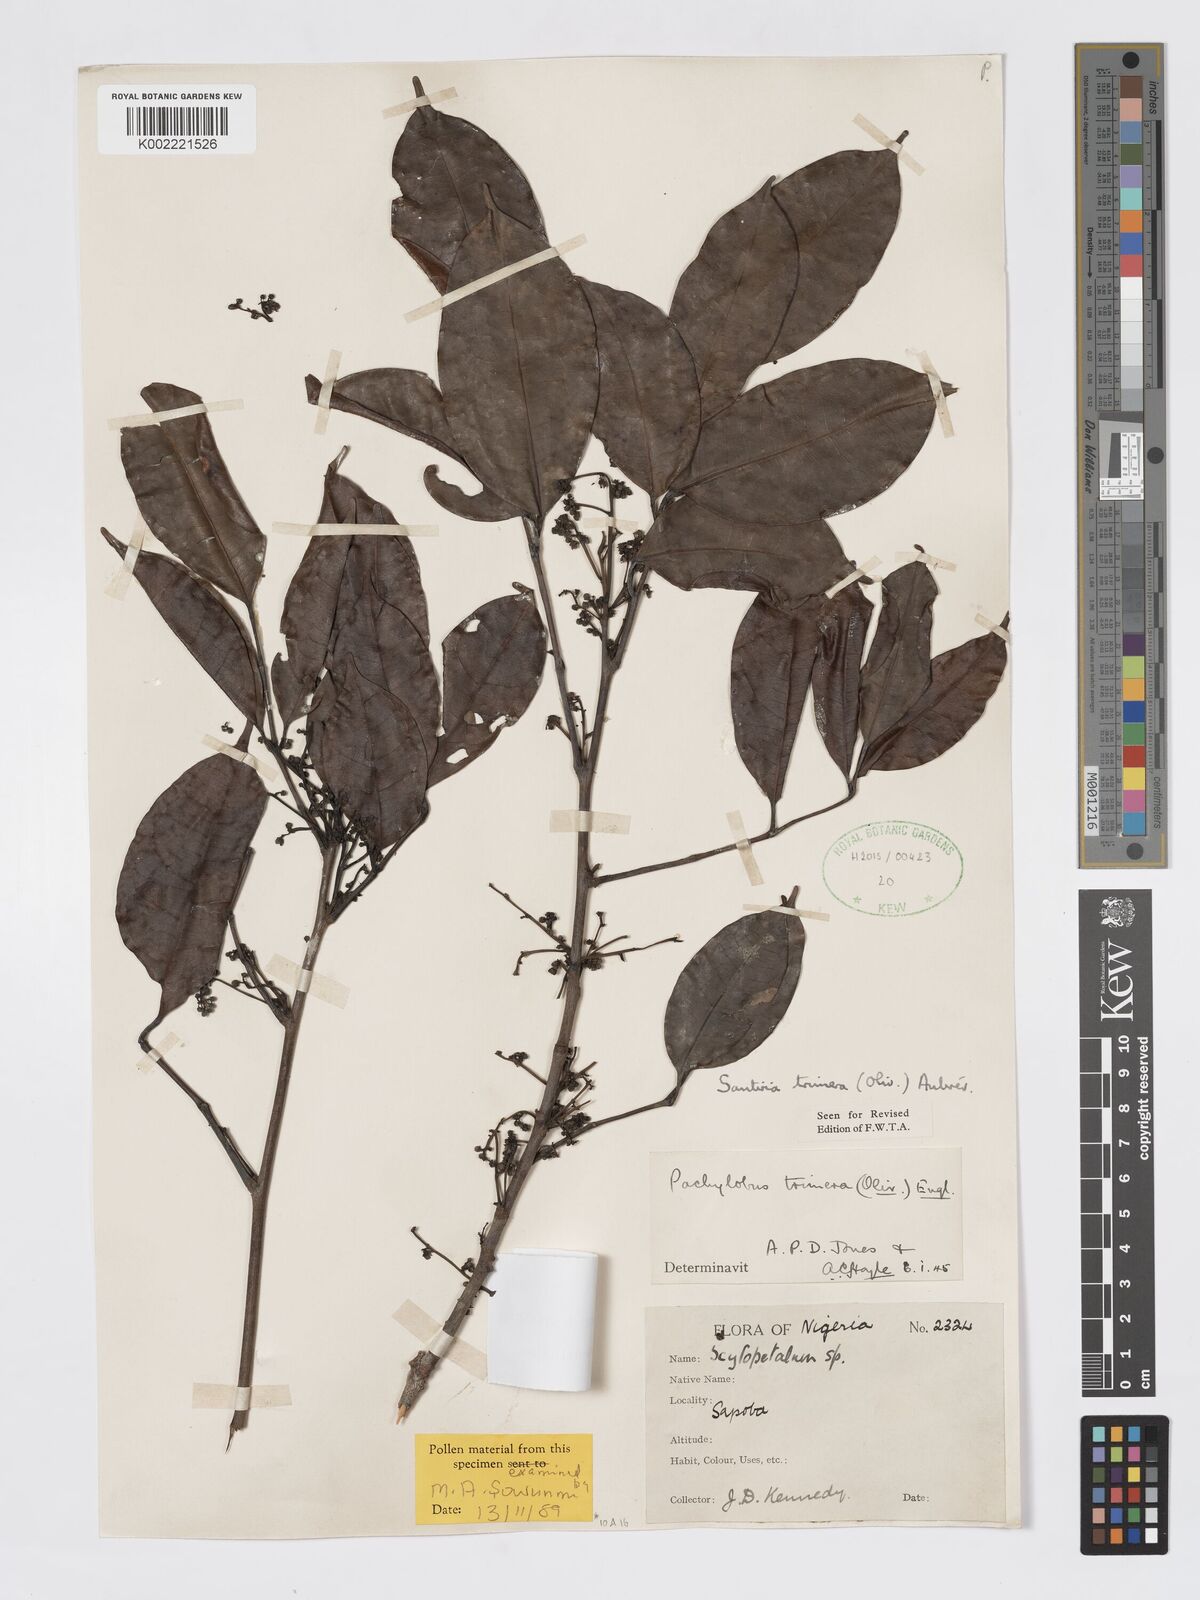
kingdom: Plantae
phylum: Tracheophyta
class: Magnoliopsida
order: Sapindales
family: Burseraceae
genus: Pachylobus
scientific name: Pachylobus trimerus
